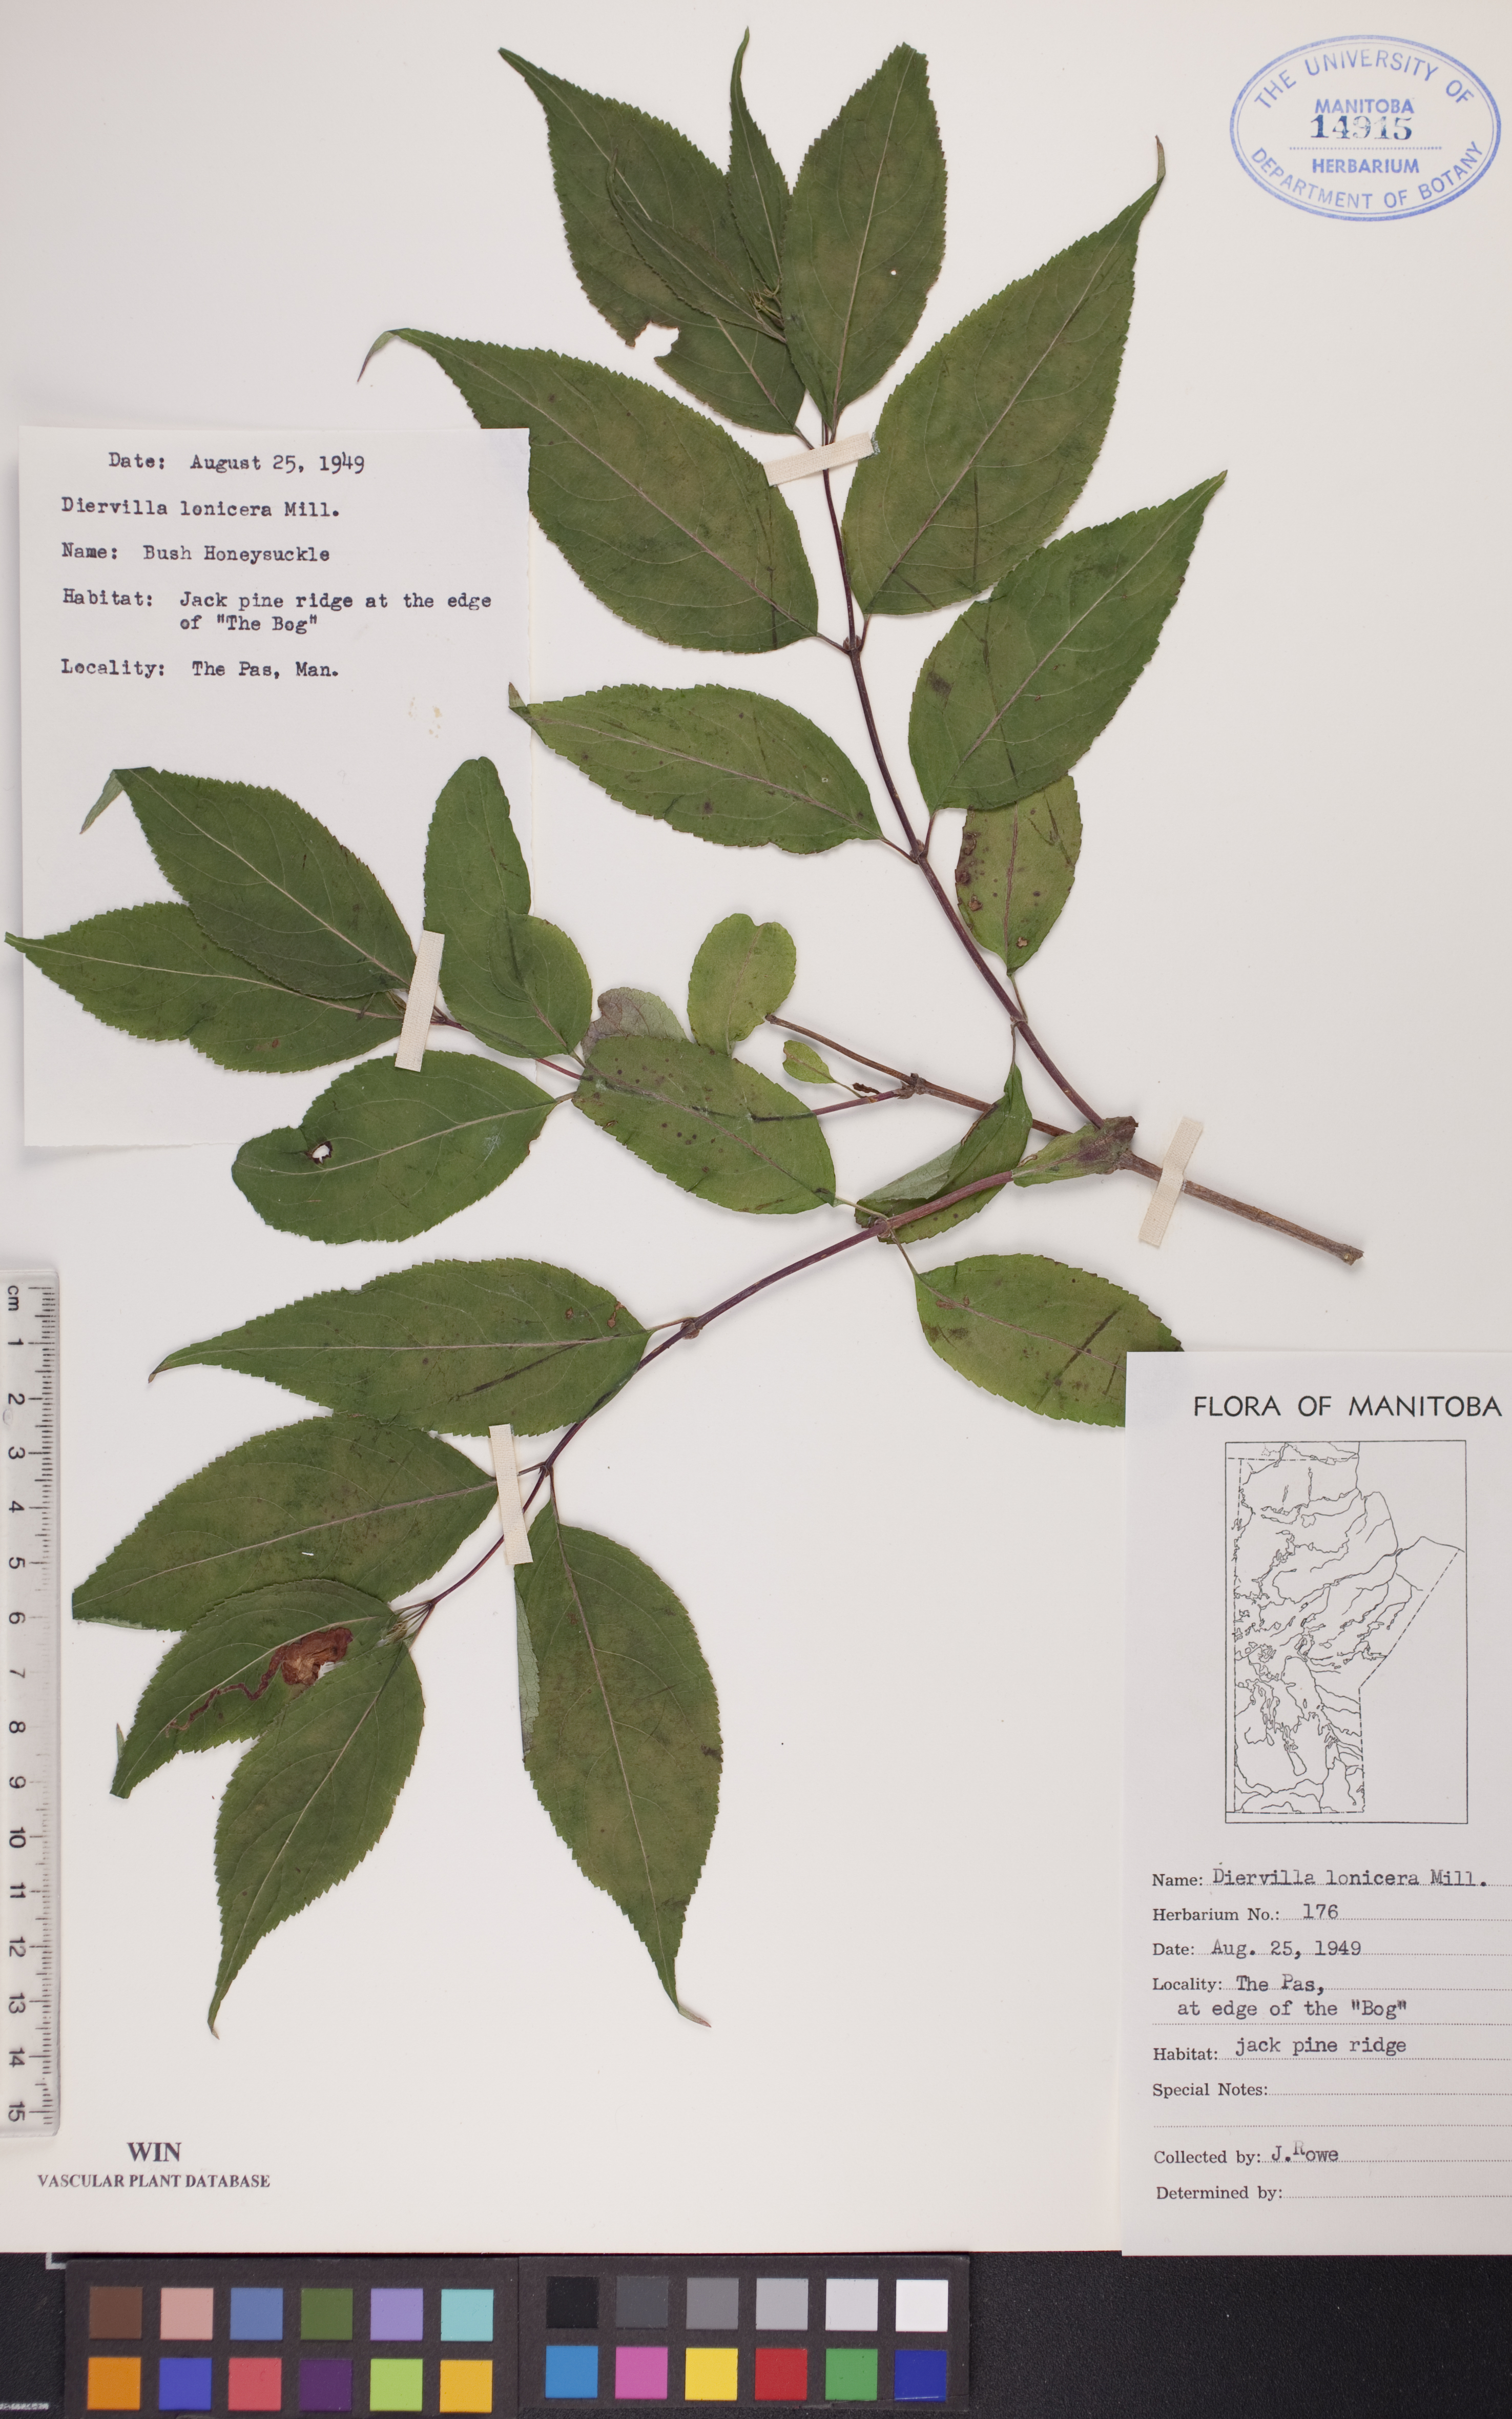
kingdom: Plantae
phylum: Tracheophyta
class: Magnoliopsida
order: Dipsacales
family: Caprifoliaceae
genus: Diervilla
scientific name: Diervilla lonicera
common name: Bush-honeysuckle
